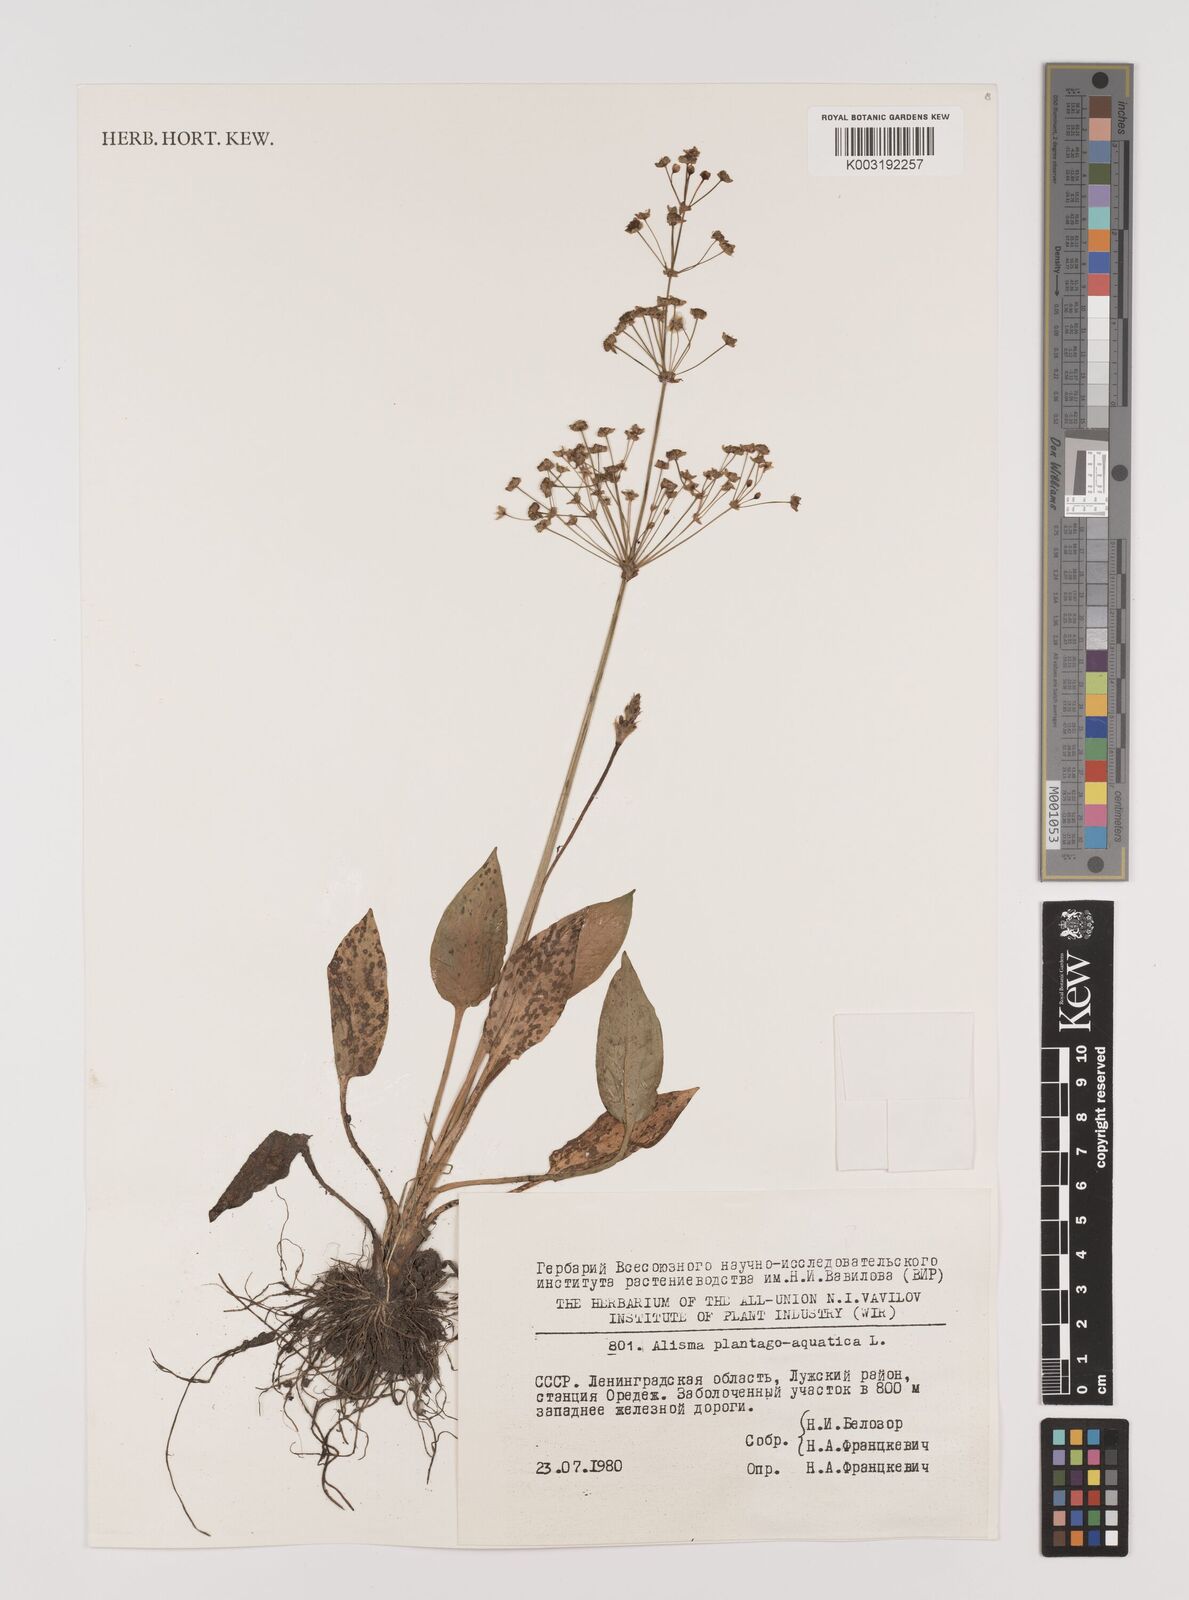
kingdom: Plantae
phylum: Tracheophyta
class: Liliopsida
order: Alismatales
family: Alismataceae
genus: Alisma
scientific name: Alisma plantago-aquatica
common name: Water-plantain
